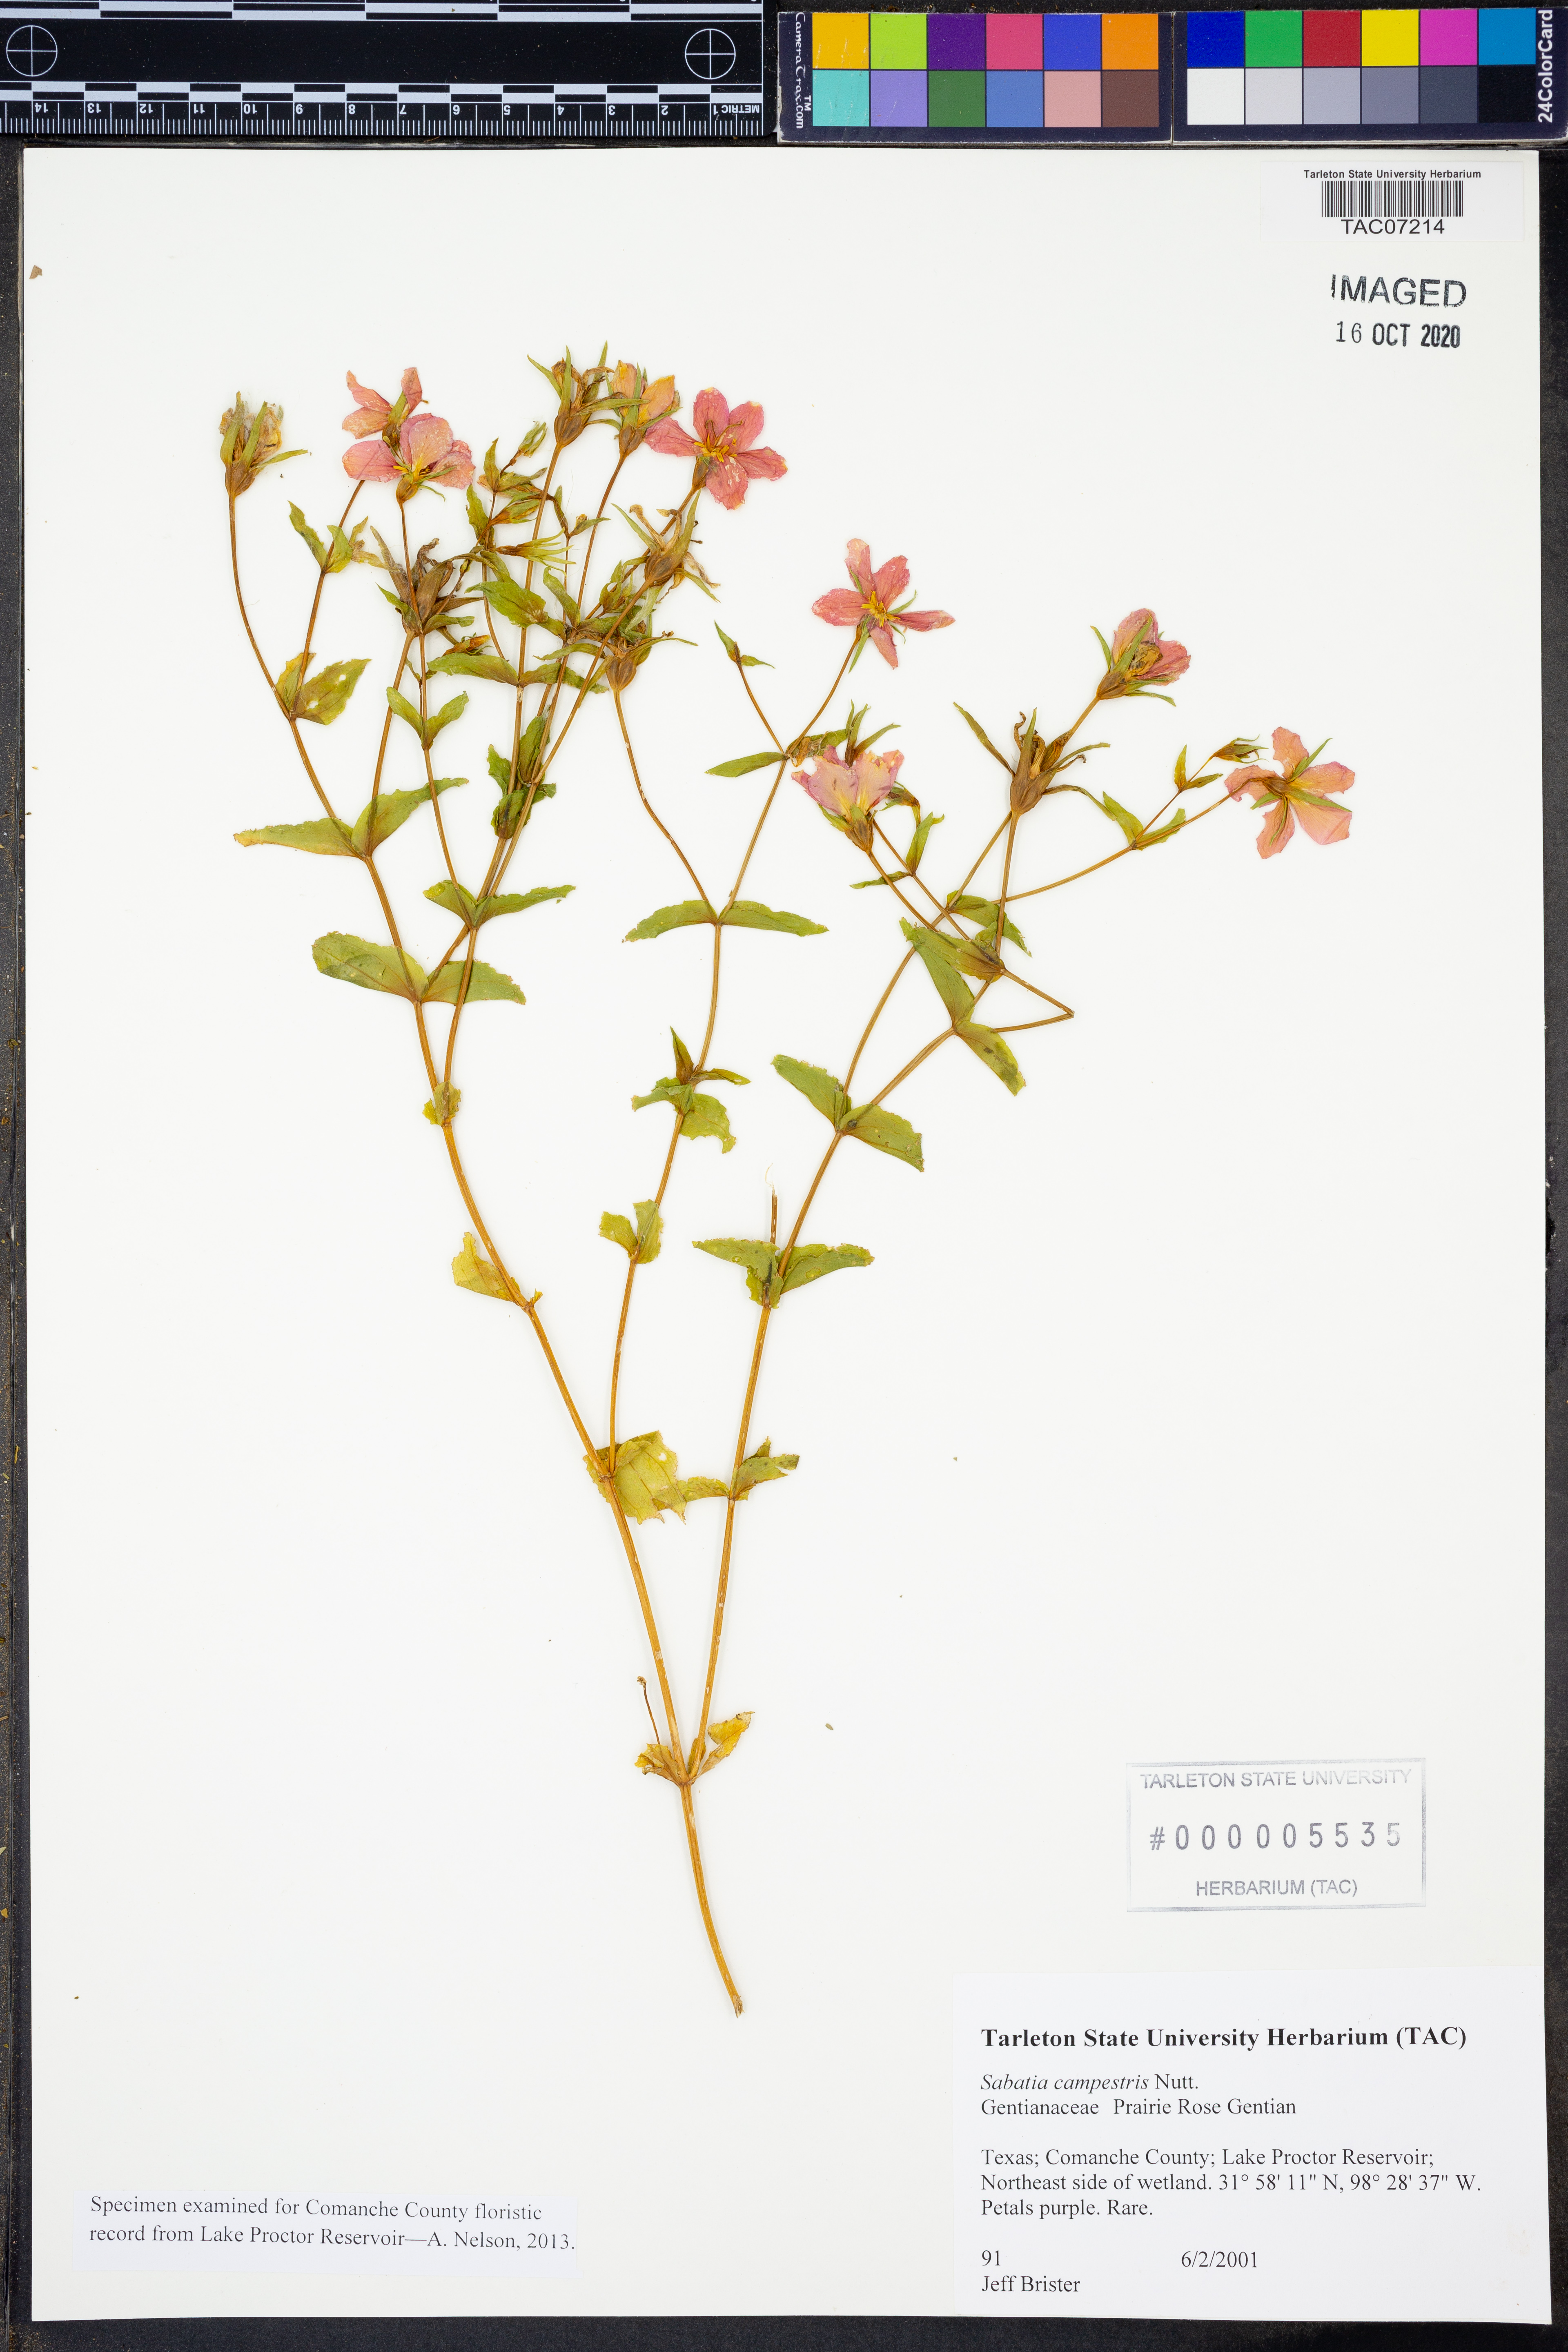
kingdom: Plantae
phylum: Tracheophyta
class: Magnoliopsida
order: Gentianales
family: Gentianaceae
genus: Sabatia
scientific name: Sabatia campestris
